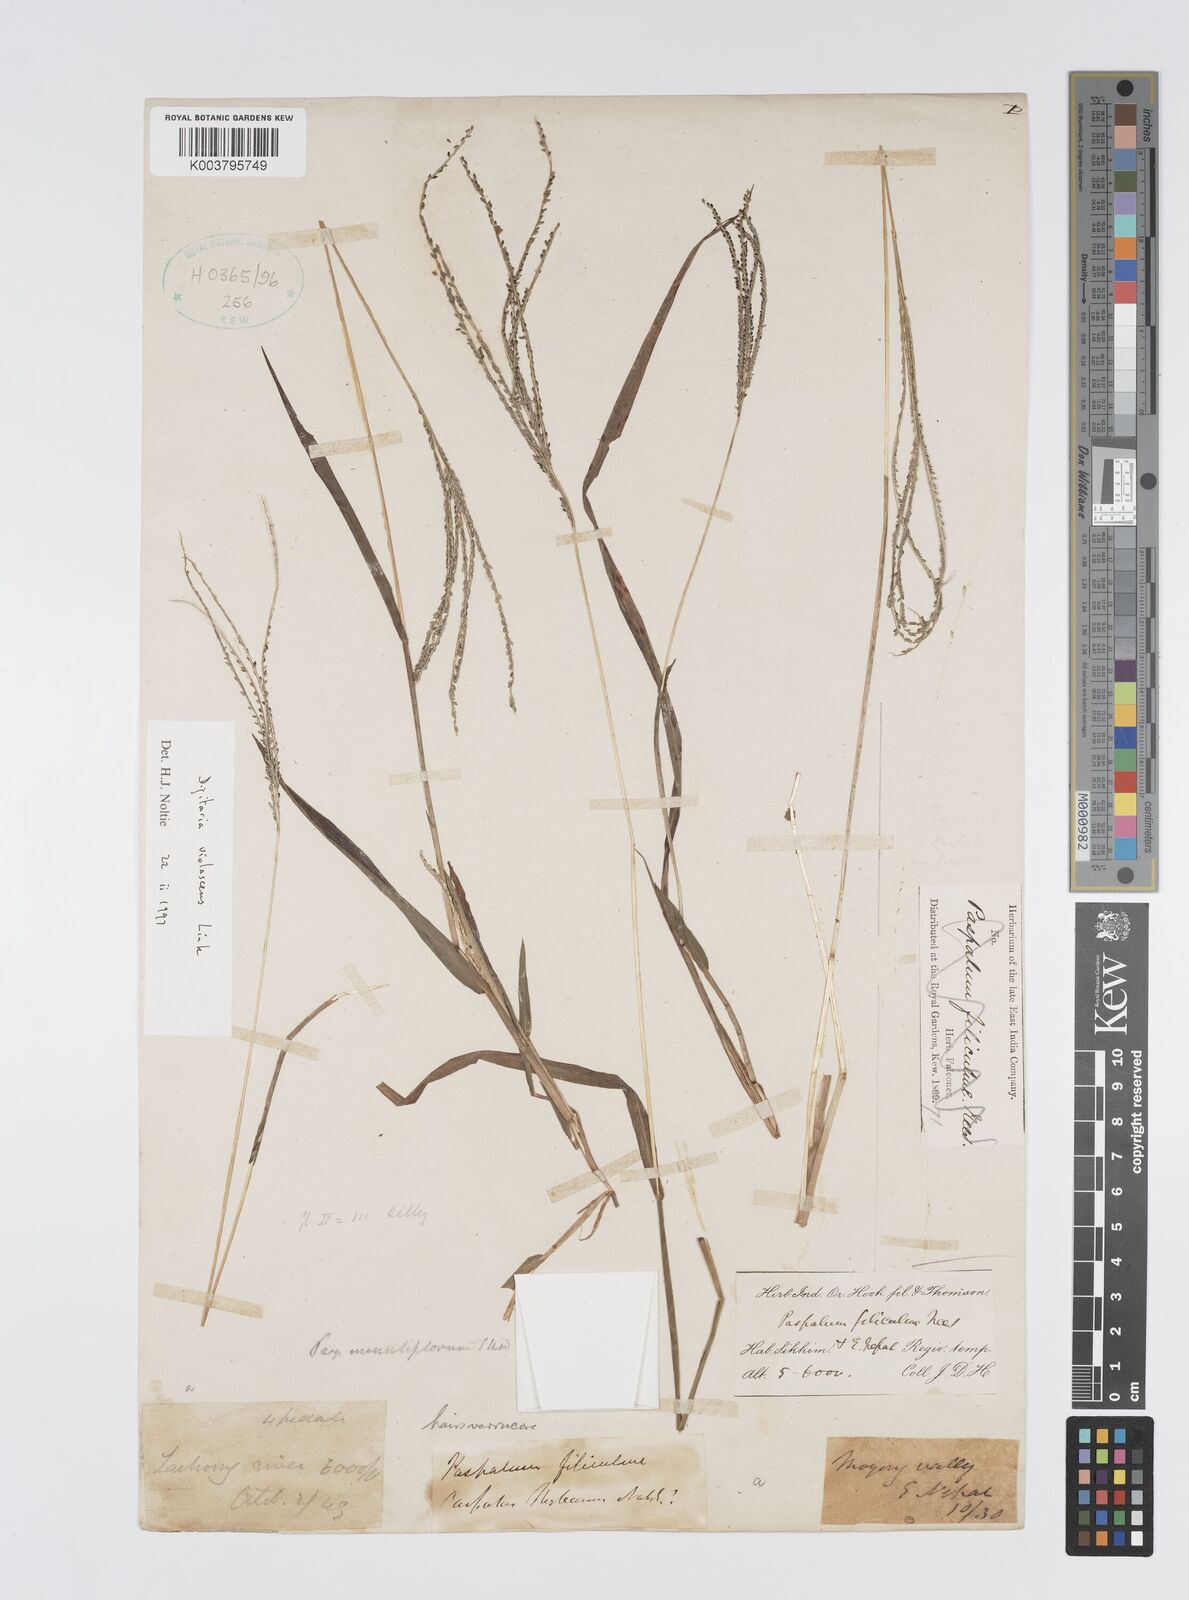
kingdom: Plantae
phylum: Tracheophyta
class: Liliopsida
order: Poales
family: Poaceae
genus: Digitaria
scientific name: Digitaria violascens
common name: Violet crabgrass
